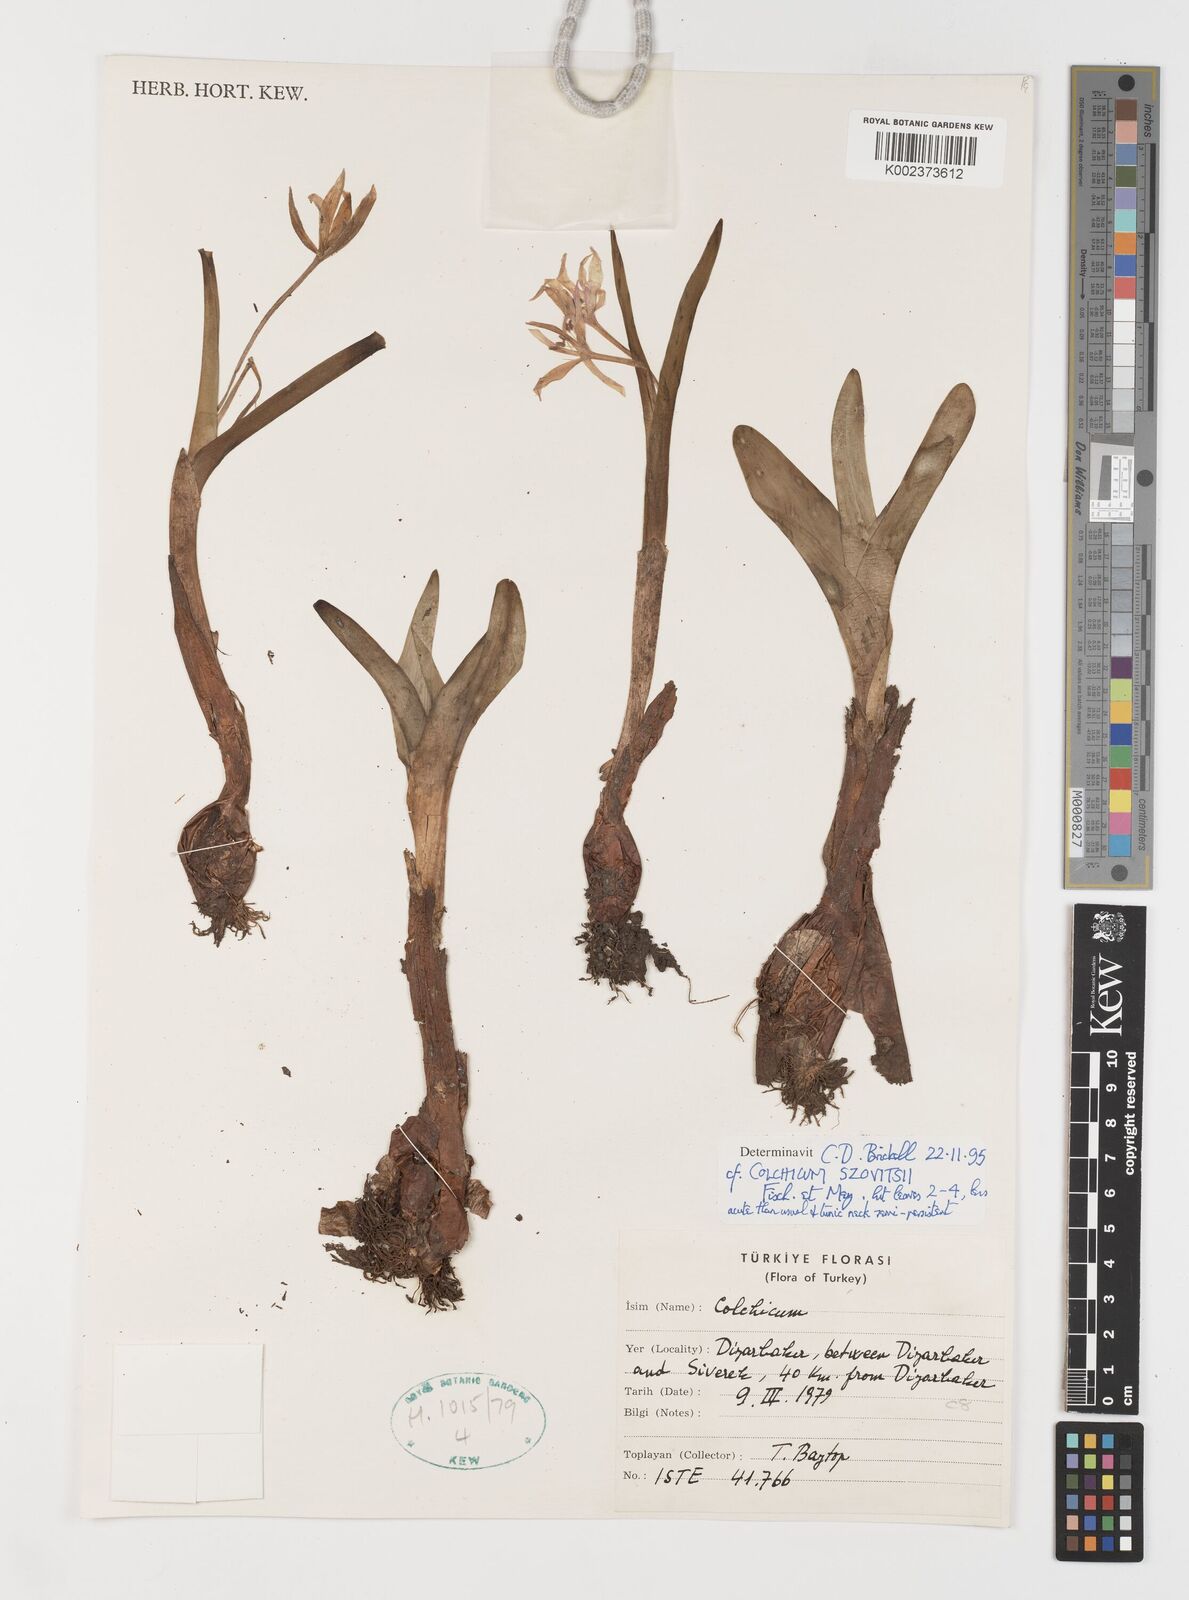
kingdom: Plantae
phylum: Tracheophyta
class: Liliopsida
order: Liliales
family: Colchicaceae
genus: Colchicum
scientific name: Colchicum szovitsii
